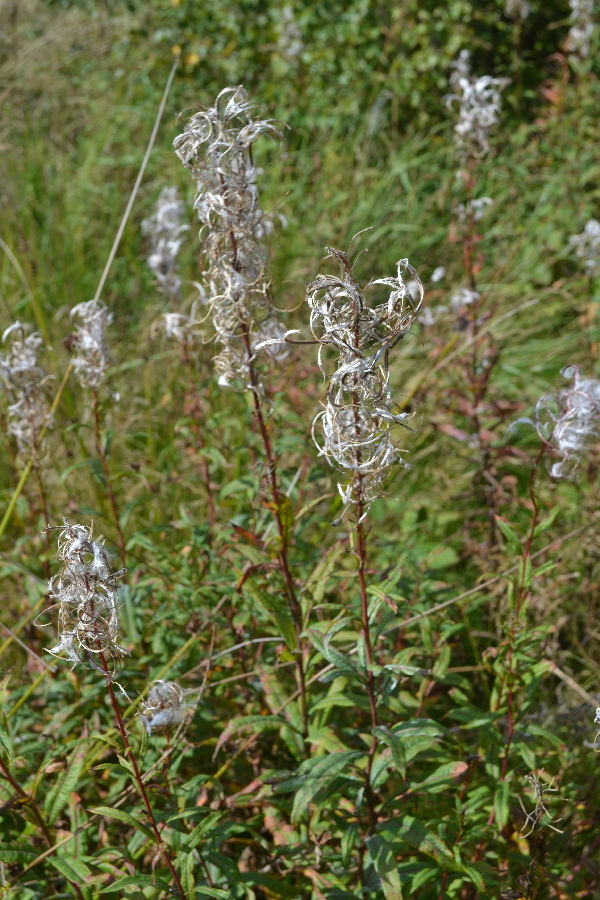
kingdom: Plantae
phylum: Tracheophyta
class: Magnoliopsida
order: Myrtales
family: Onagraceae
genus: Chamaenerion
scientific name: Chamaenerion angustifolium
